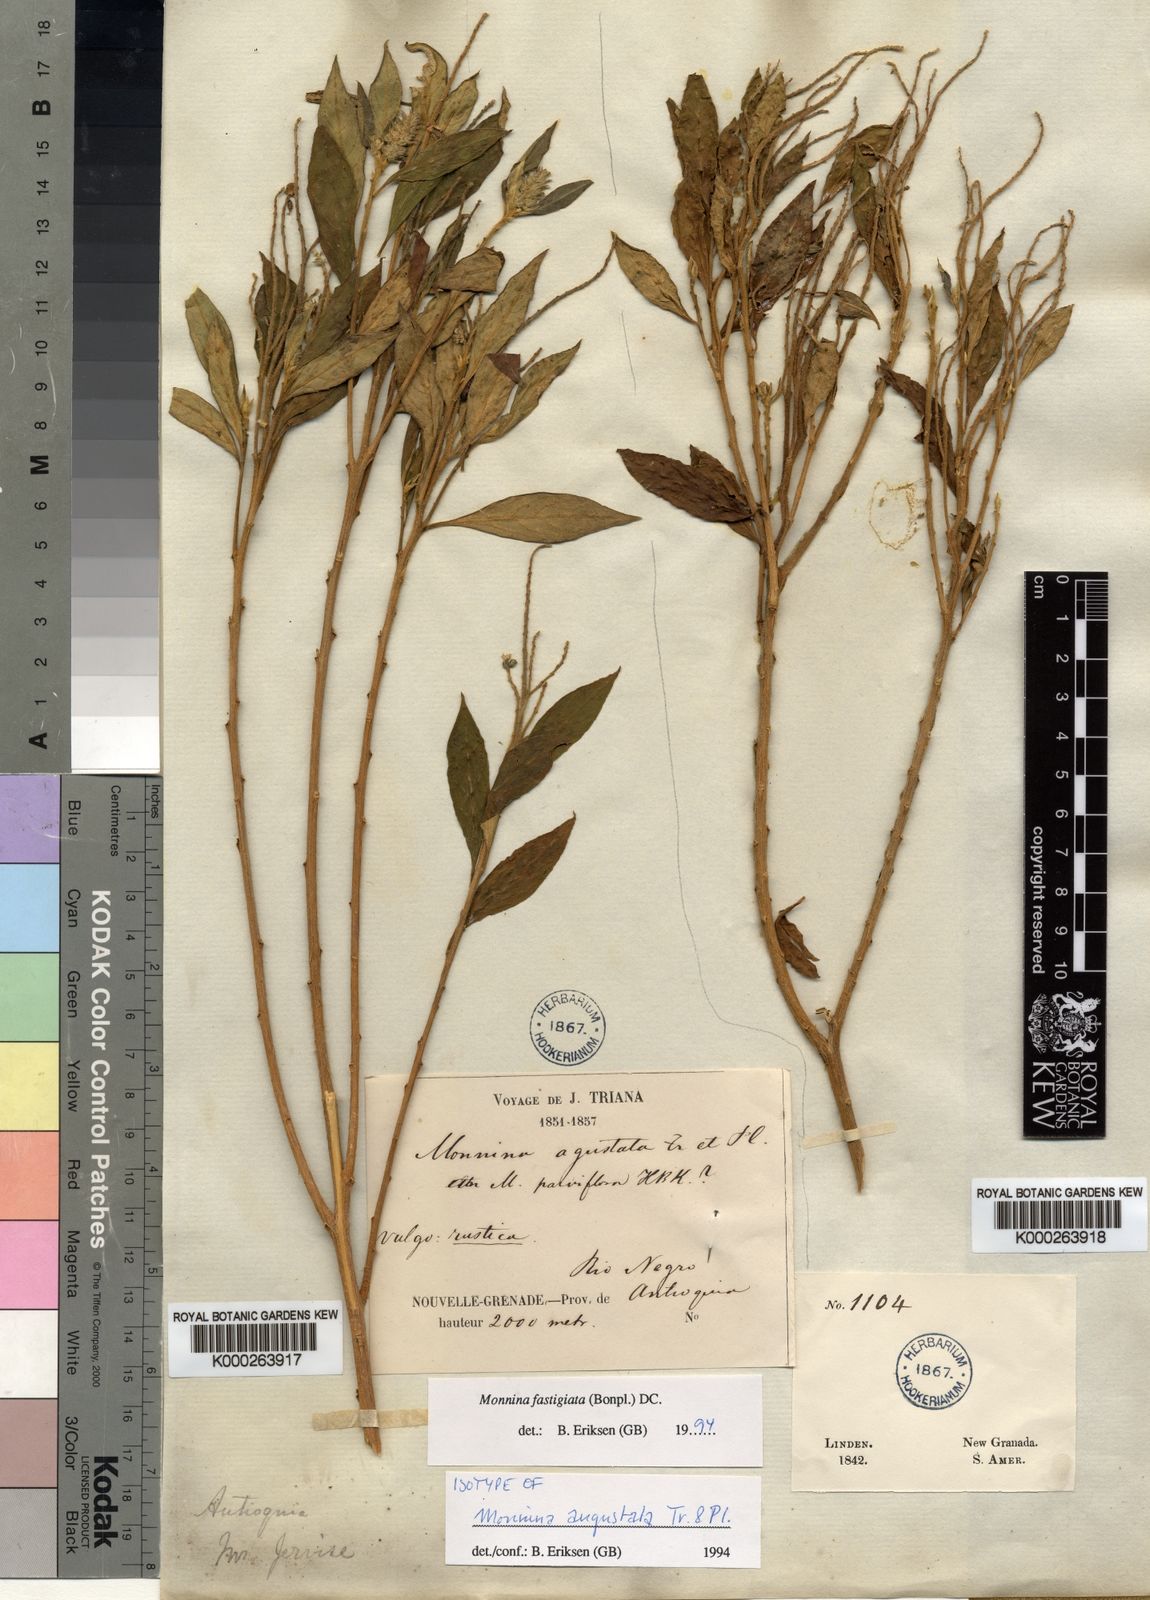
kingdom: Plantae
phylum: Tracheophyta
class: Magnoliopsida
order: Fabales
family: Polygalaceae
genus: Monnina
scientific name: Monnina fastigiata
